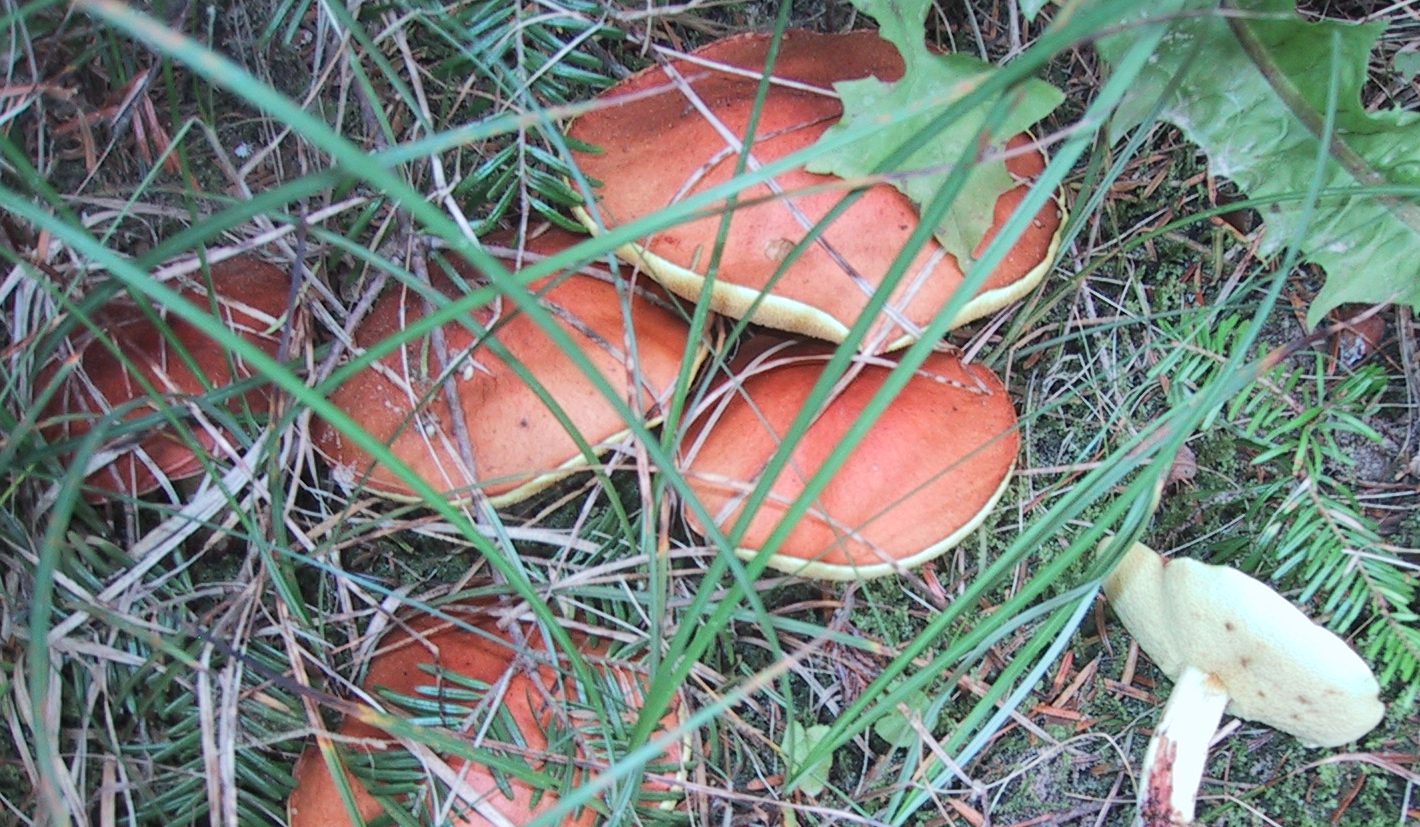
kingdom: Fungi
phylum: Basidiomycota
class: Agaricomycetes
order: Boletales
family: Suillaceae
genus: Suillus
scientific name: Suillus granulatus
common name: kornet slimrørhat
